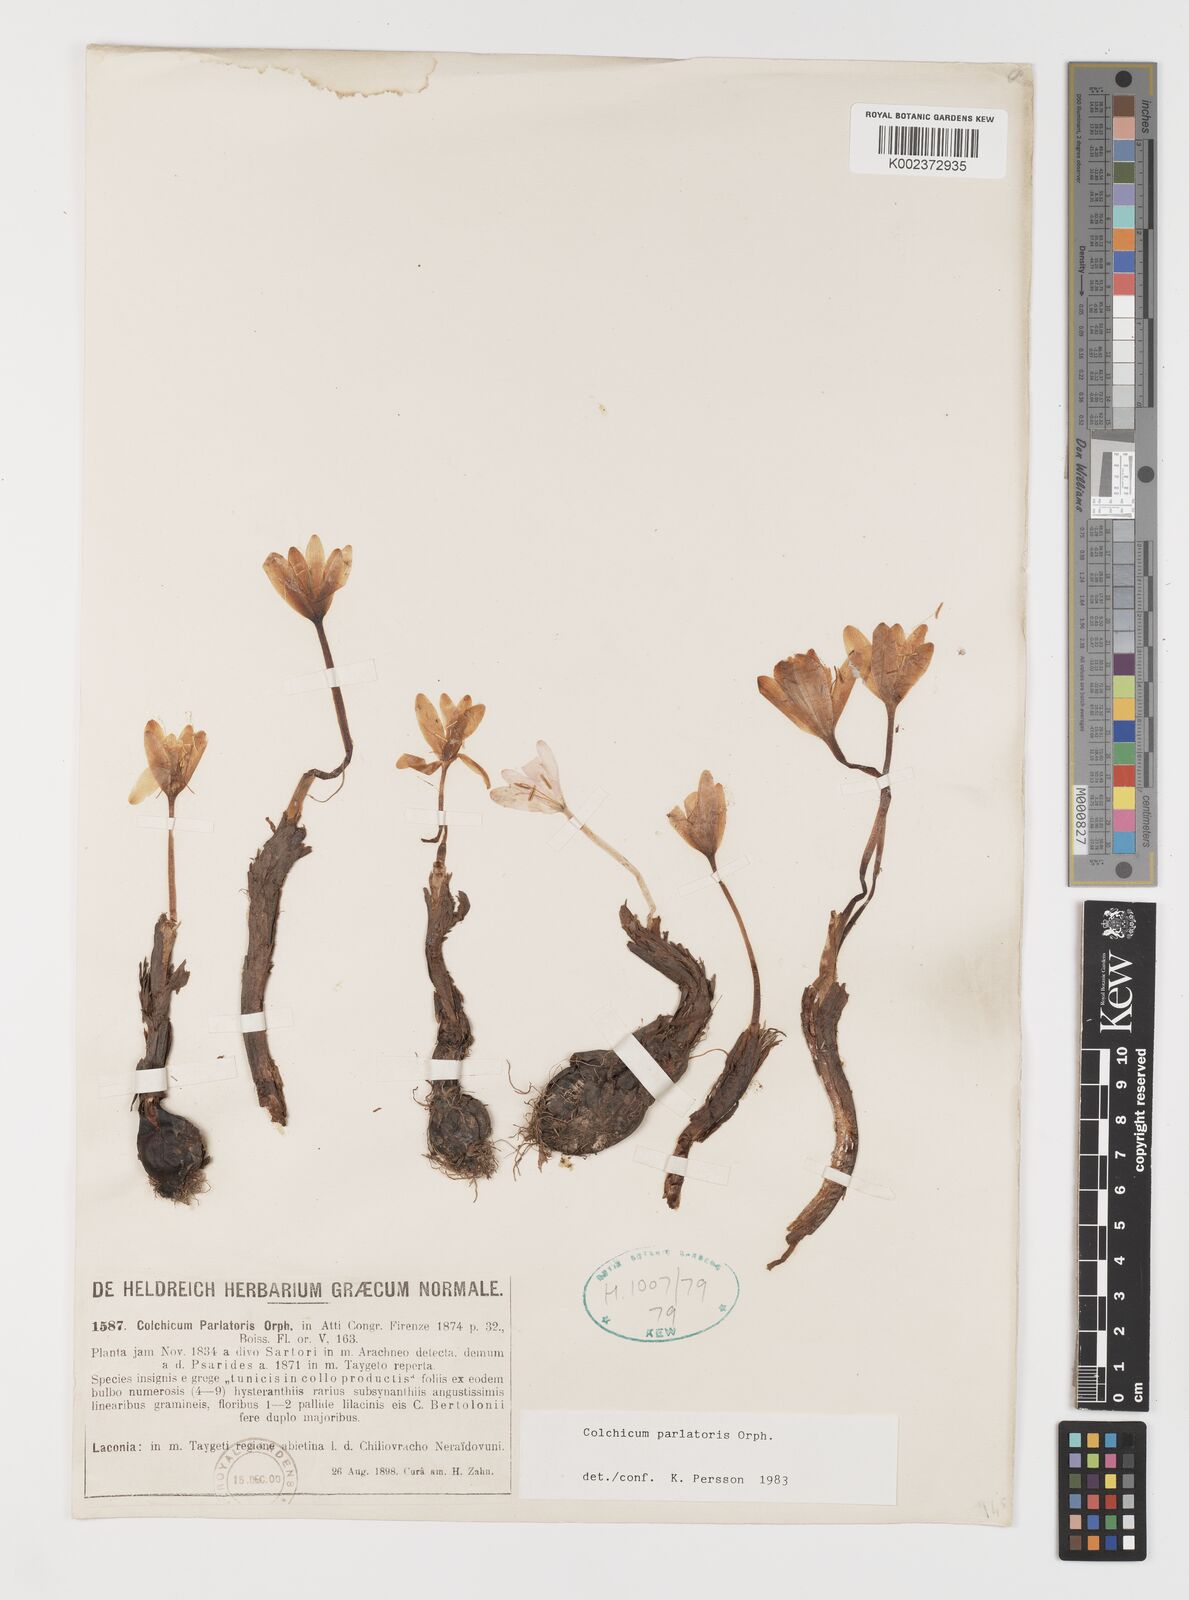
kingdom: Plantae
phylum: Tracheophyta
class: Liliopsida
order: Liliales
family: Colchicaceae
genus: Colchicum
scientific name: Colchicum parlatoris
